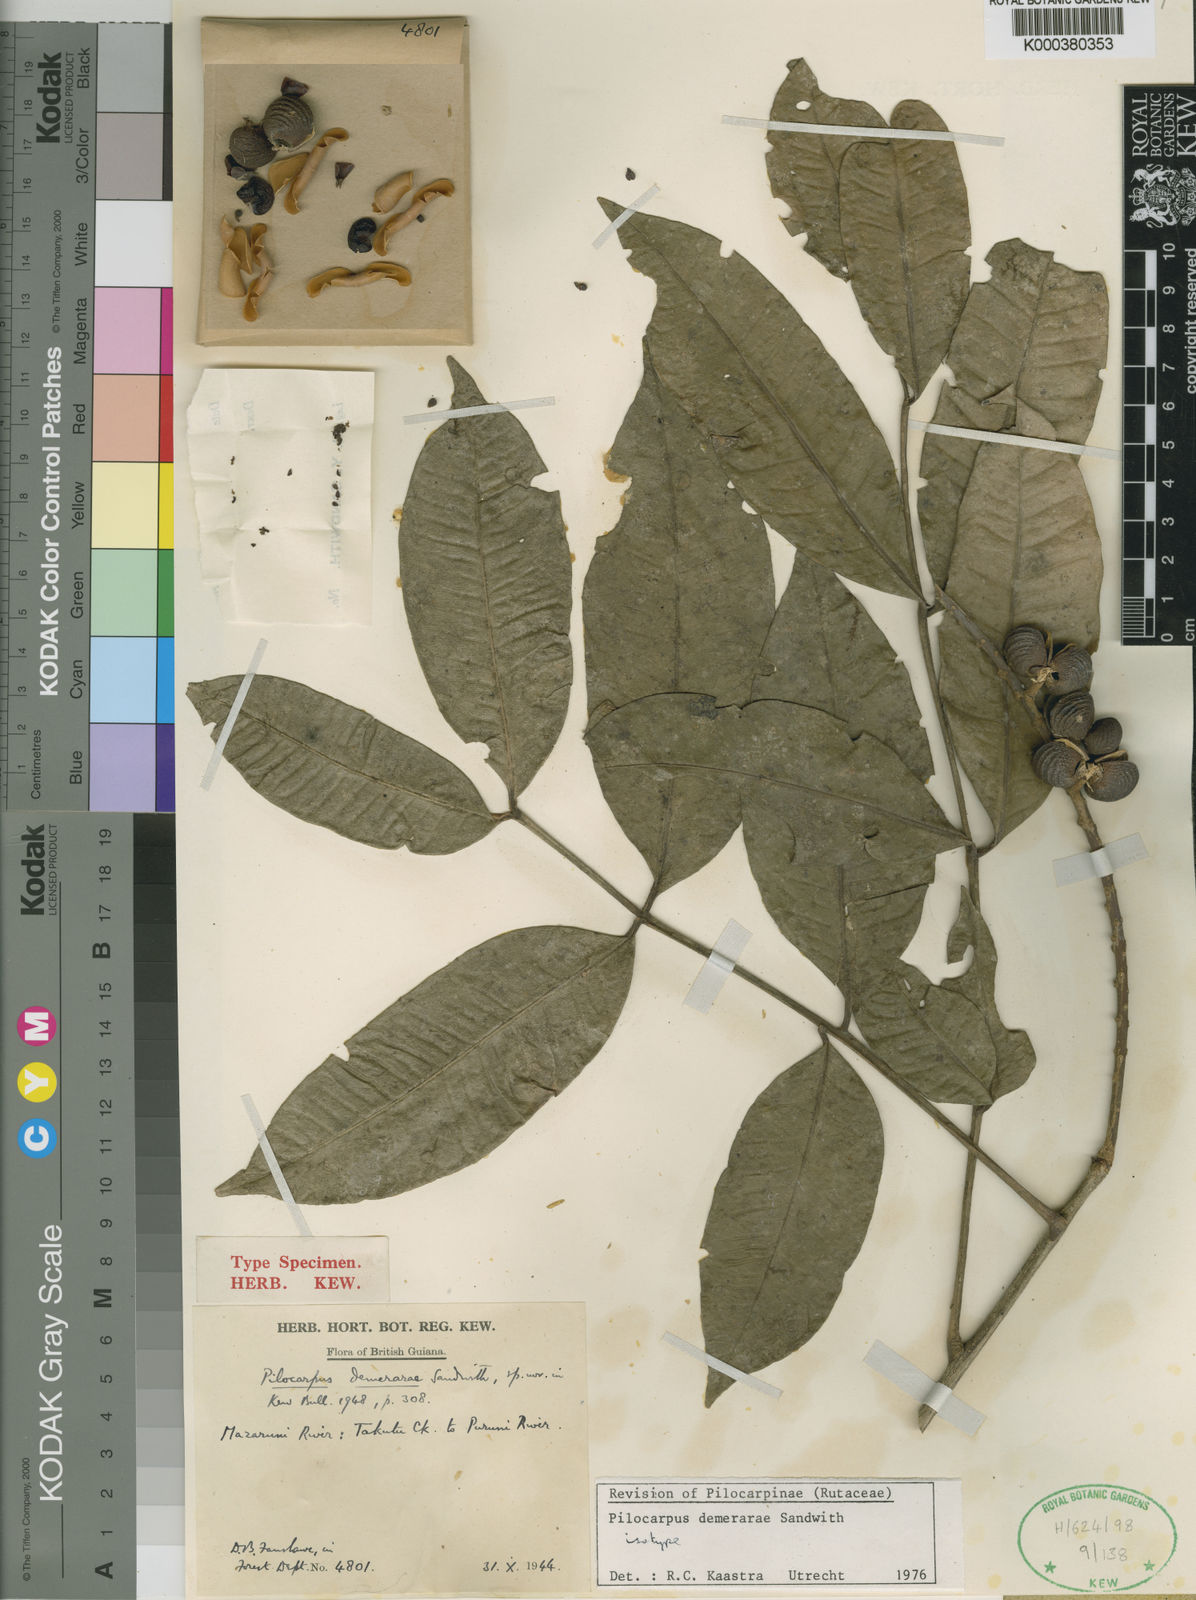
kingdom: Plantae
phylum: Tracheophyta
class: Magnoliopsida
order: Sapindales
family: Rutaceae
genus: Pilocarpus
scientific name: Pilocarpus demerarae
